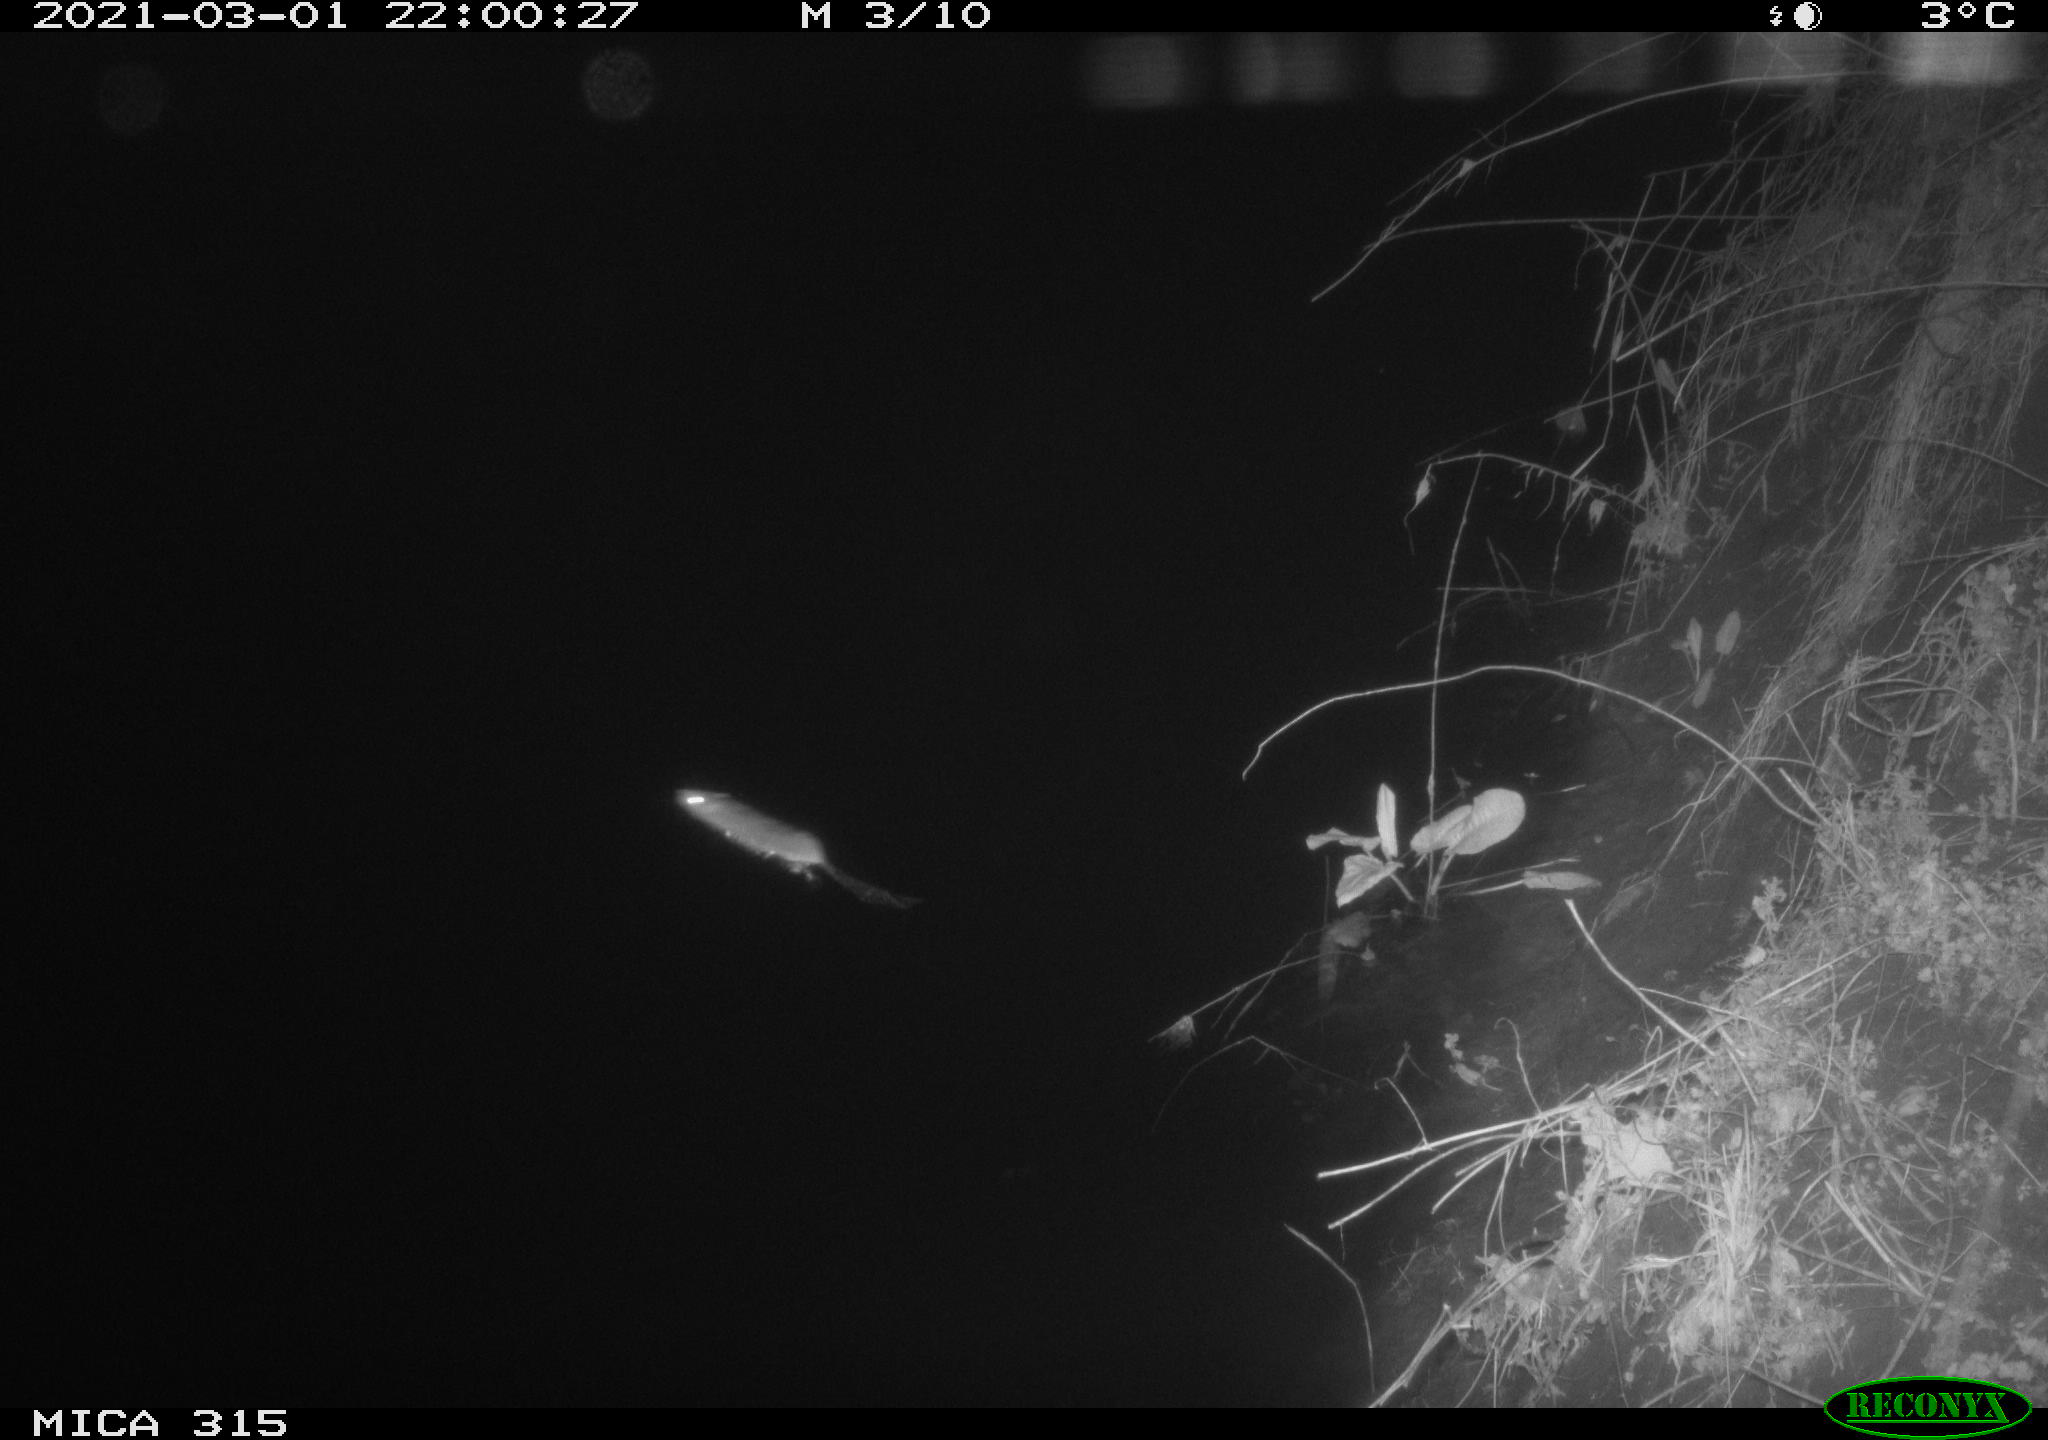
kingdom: Animalia
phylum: Chordata
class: Mammalia
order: Rodentia
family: Muridae
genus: Rattus
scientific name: Rattus norvegicus
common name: Brown rat
